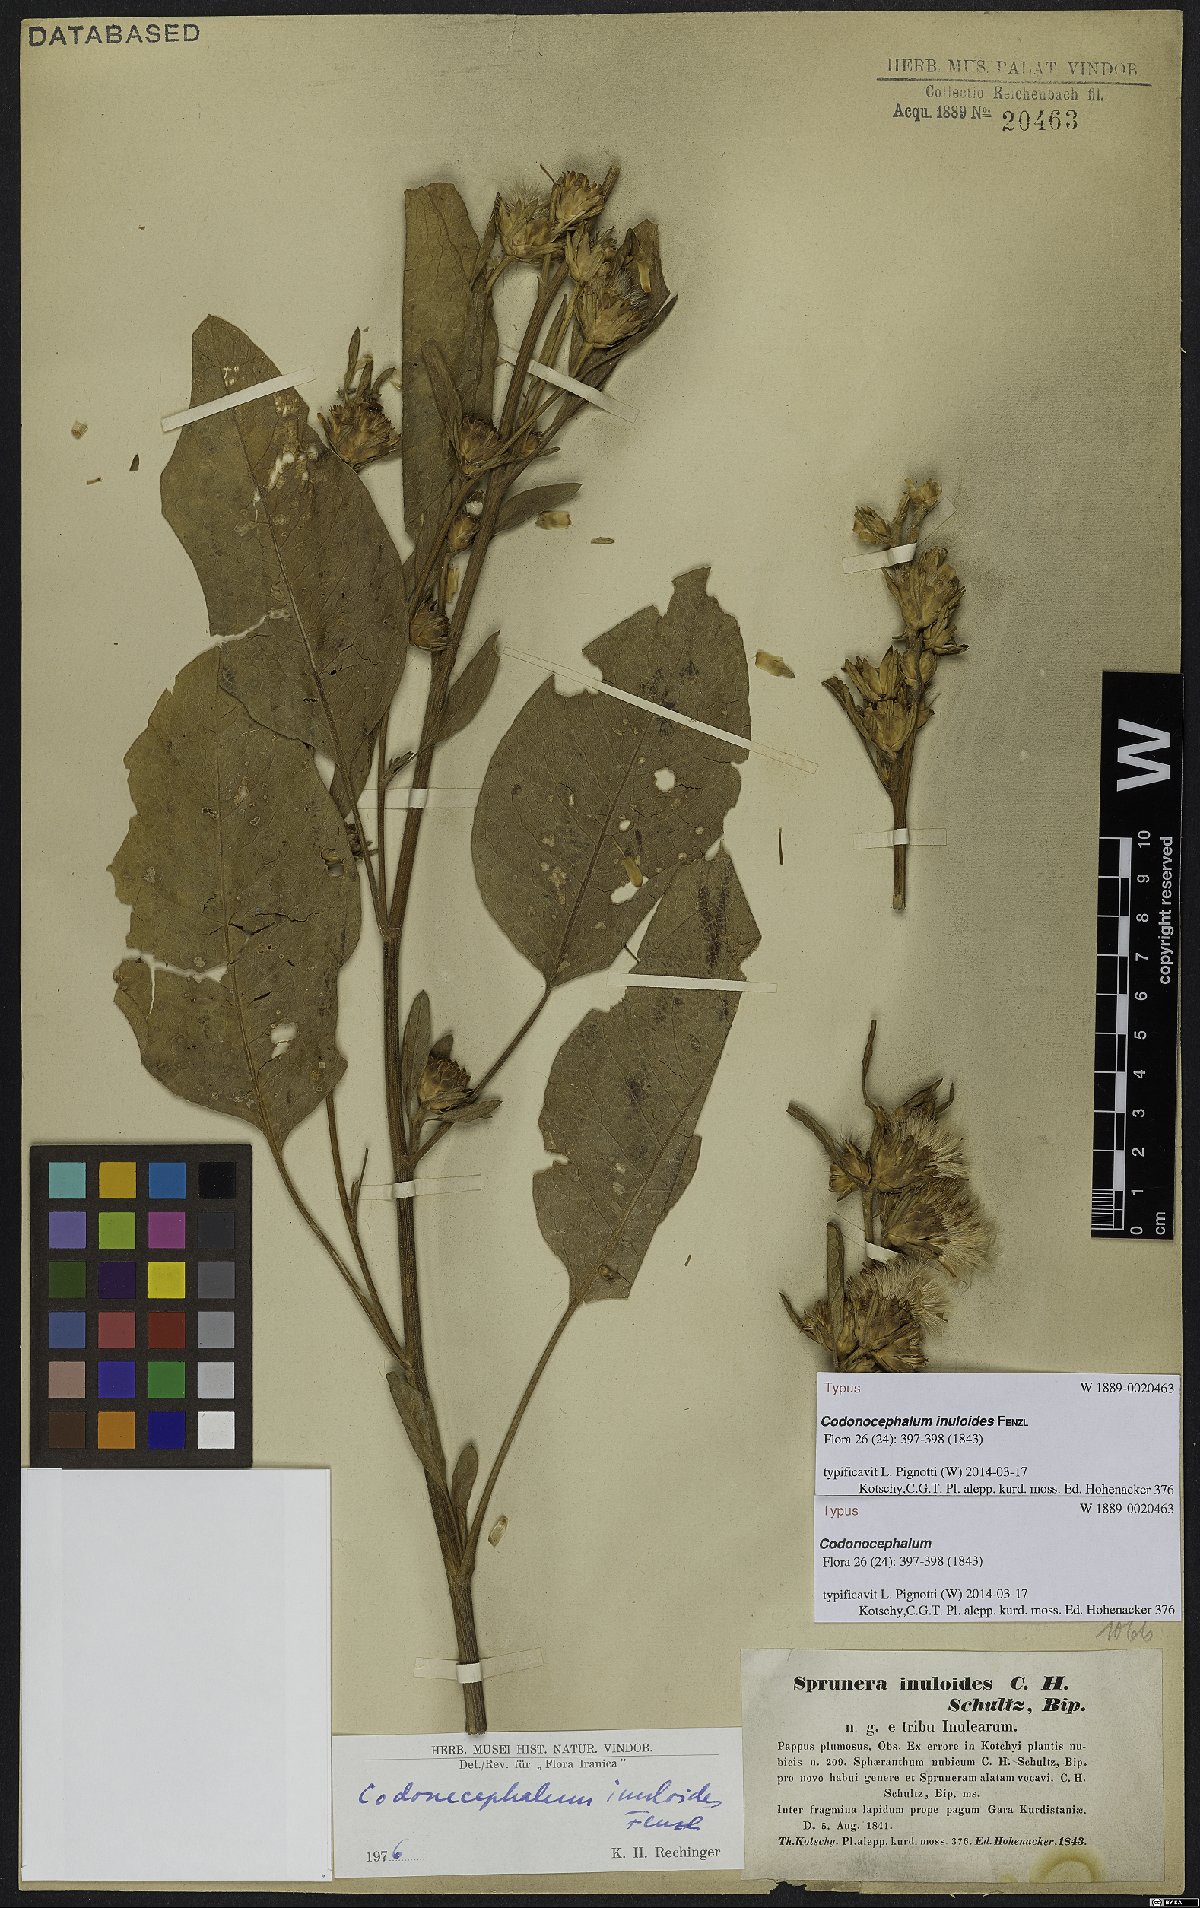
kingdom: Plantae
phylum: Tracheophyta
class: Magnoliopsida
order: Asterales
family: Asteraceae
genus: Inula
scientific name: Inula inuloides
